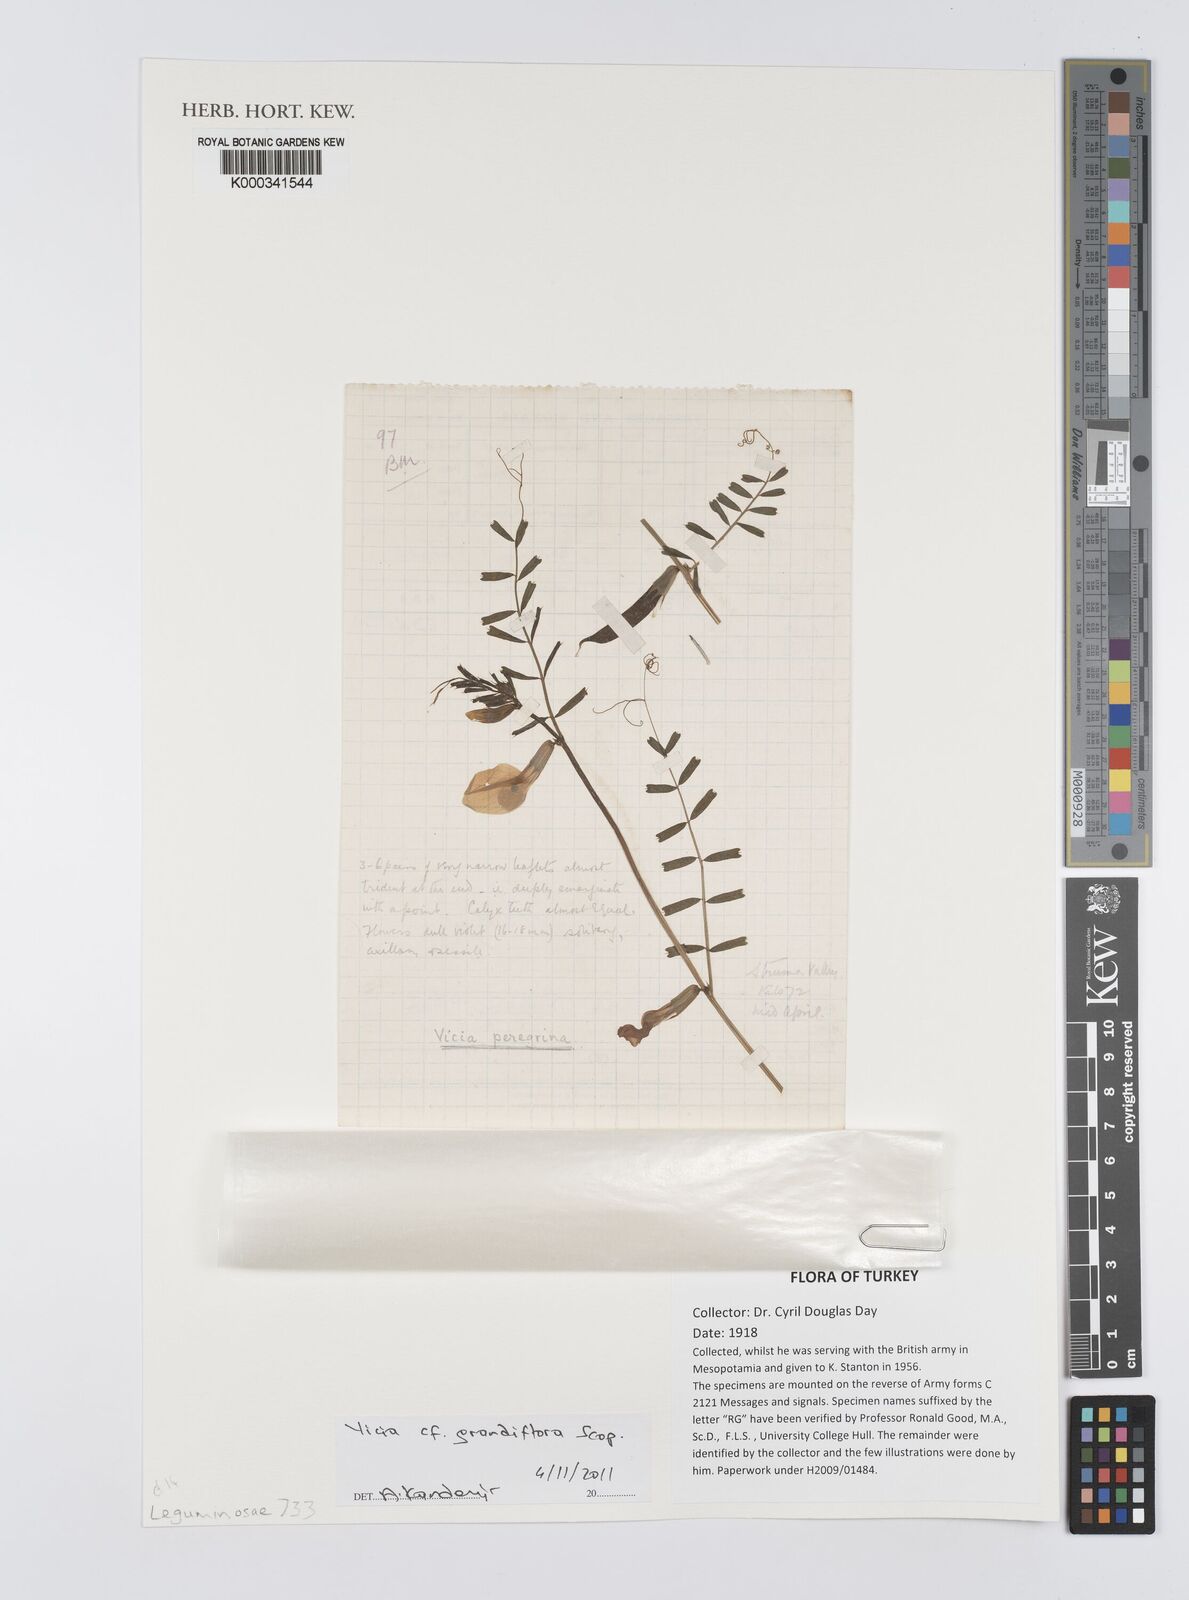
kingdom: Plantae
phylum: Tracheophyta
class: Magnoliopsida
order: Fabales
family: Fabaceae
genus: Vicia
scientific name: Vicia grandiflora
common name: Large yellow vetch
